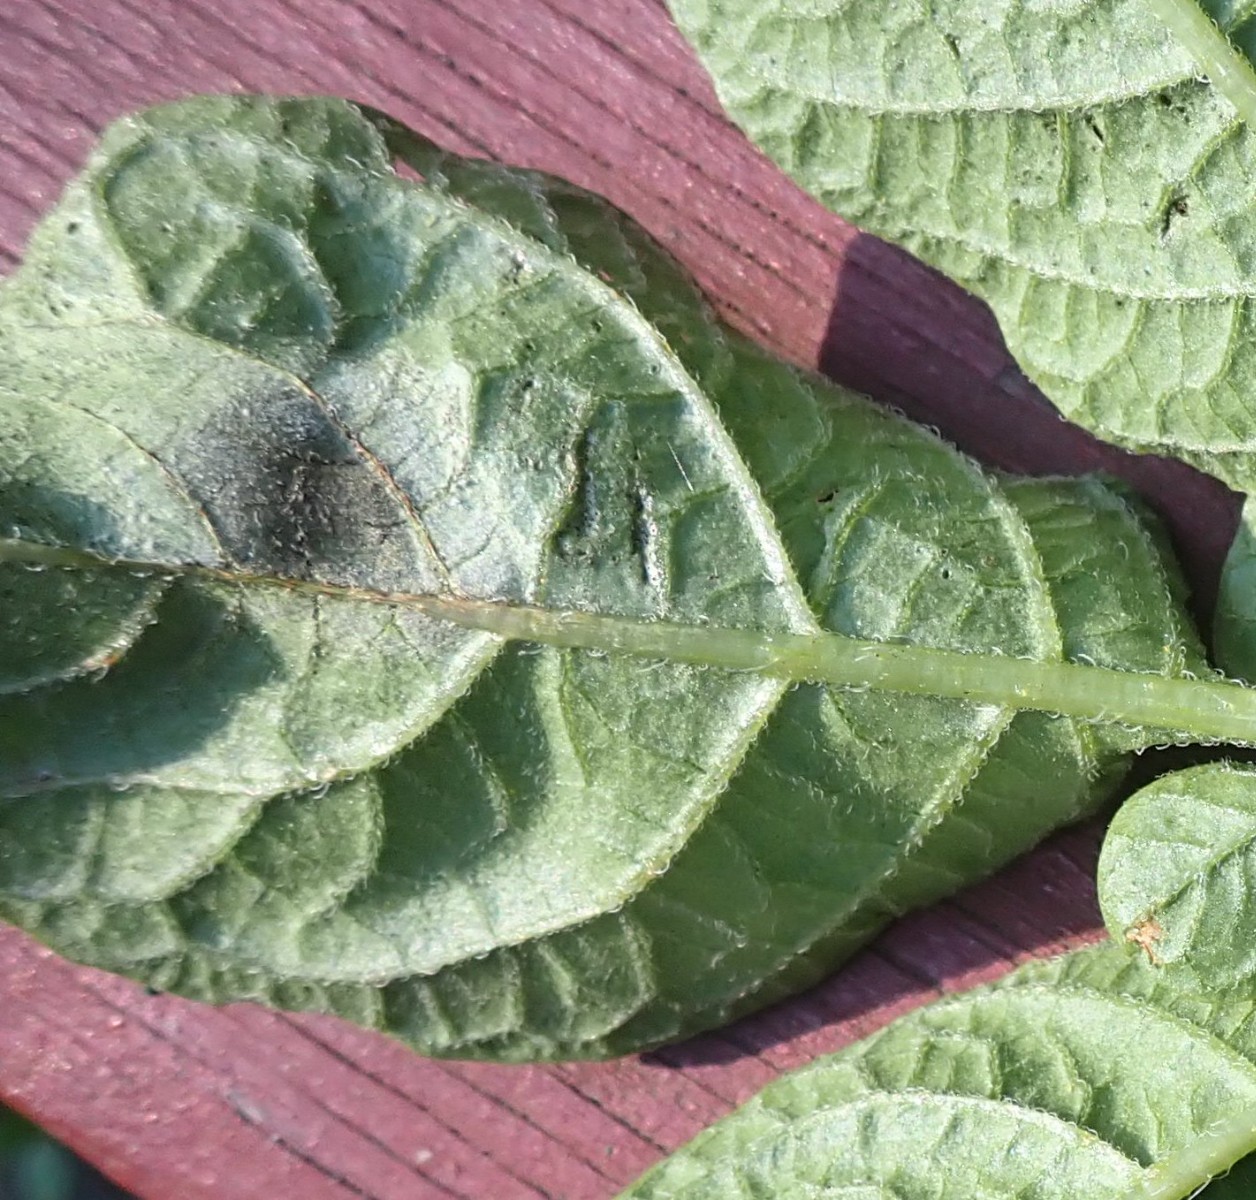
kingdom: Chromista
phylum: Oomycota
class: Peronosporea
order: Peronosporales
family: Peronosporaceae
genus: Phytophthora
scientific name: Phytophthora infestans
